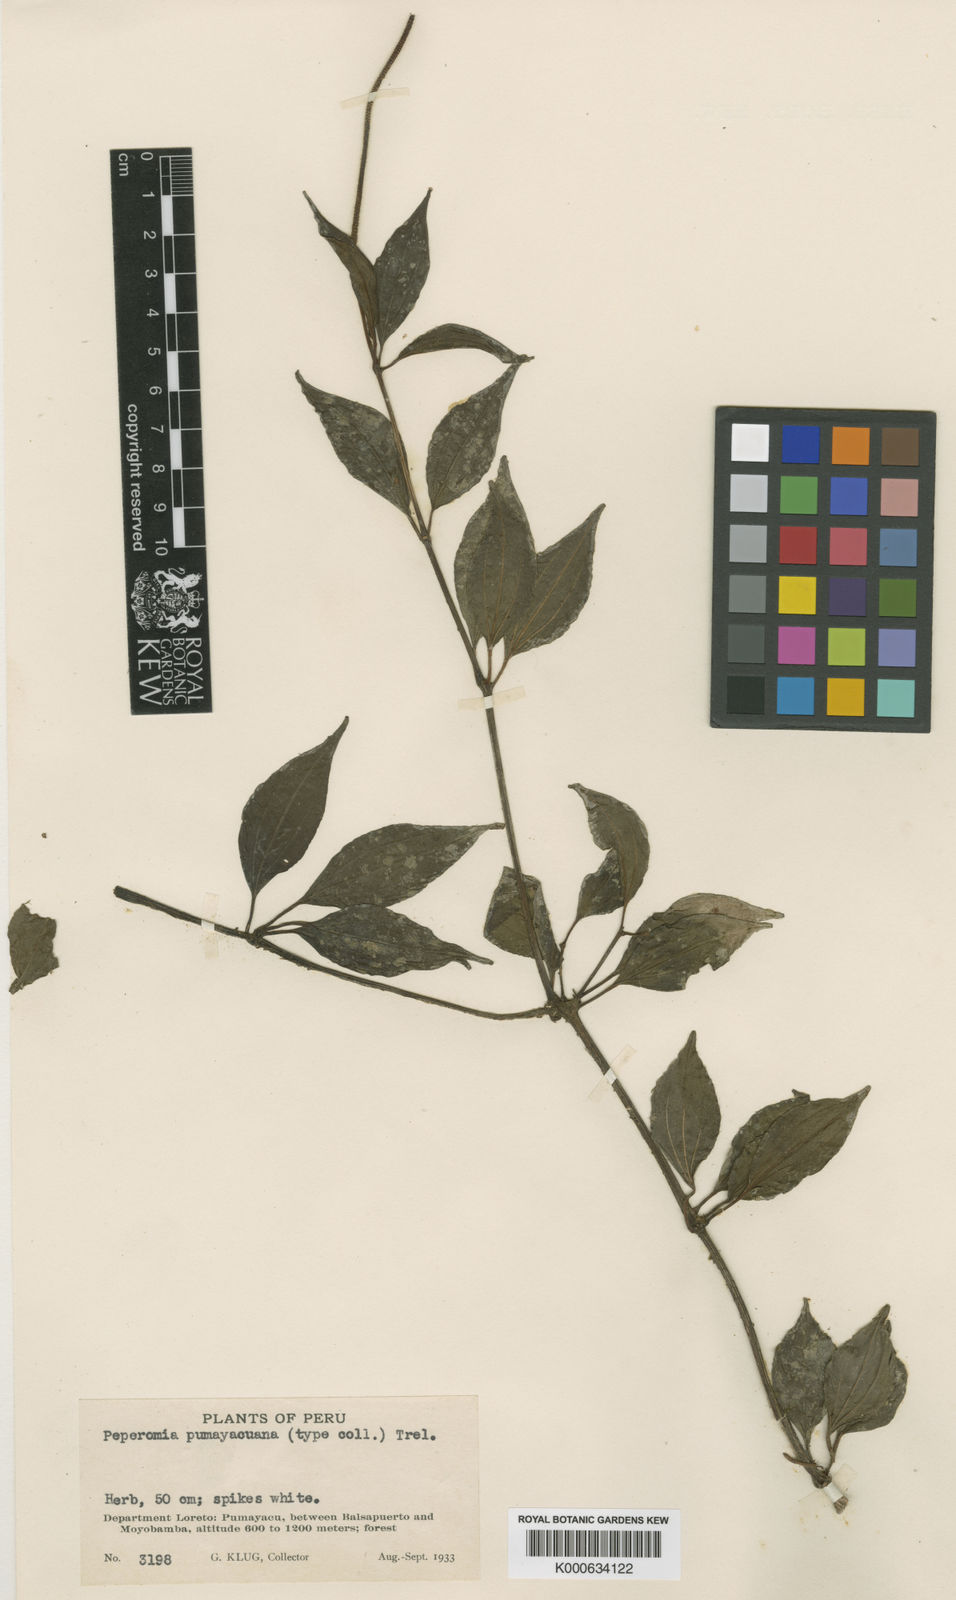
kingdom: Plantae
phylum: Tracheophyta
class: Magnoliopsida
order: Piperales
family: Piperaceae
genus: Peperomia
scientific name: Peperomia
